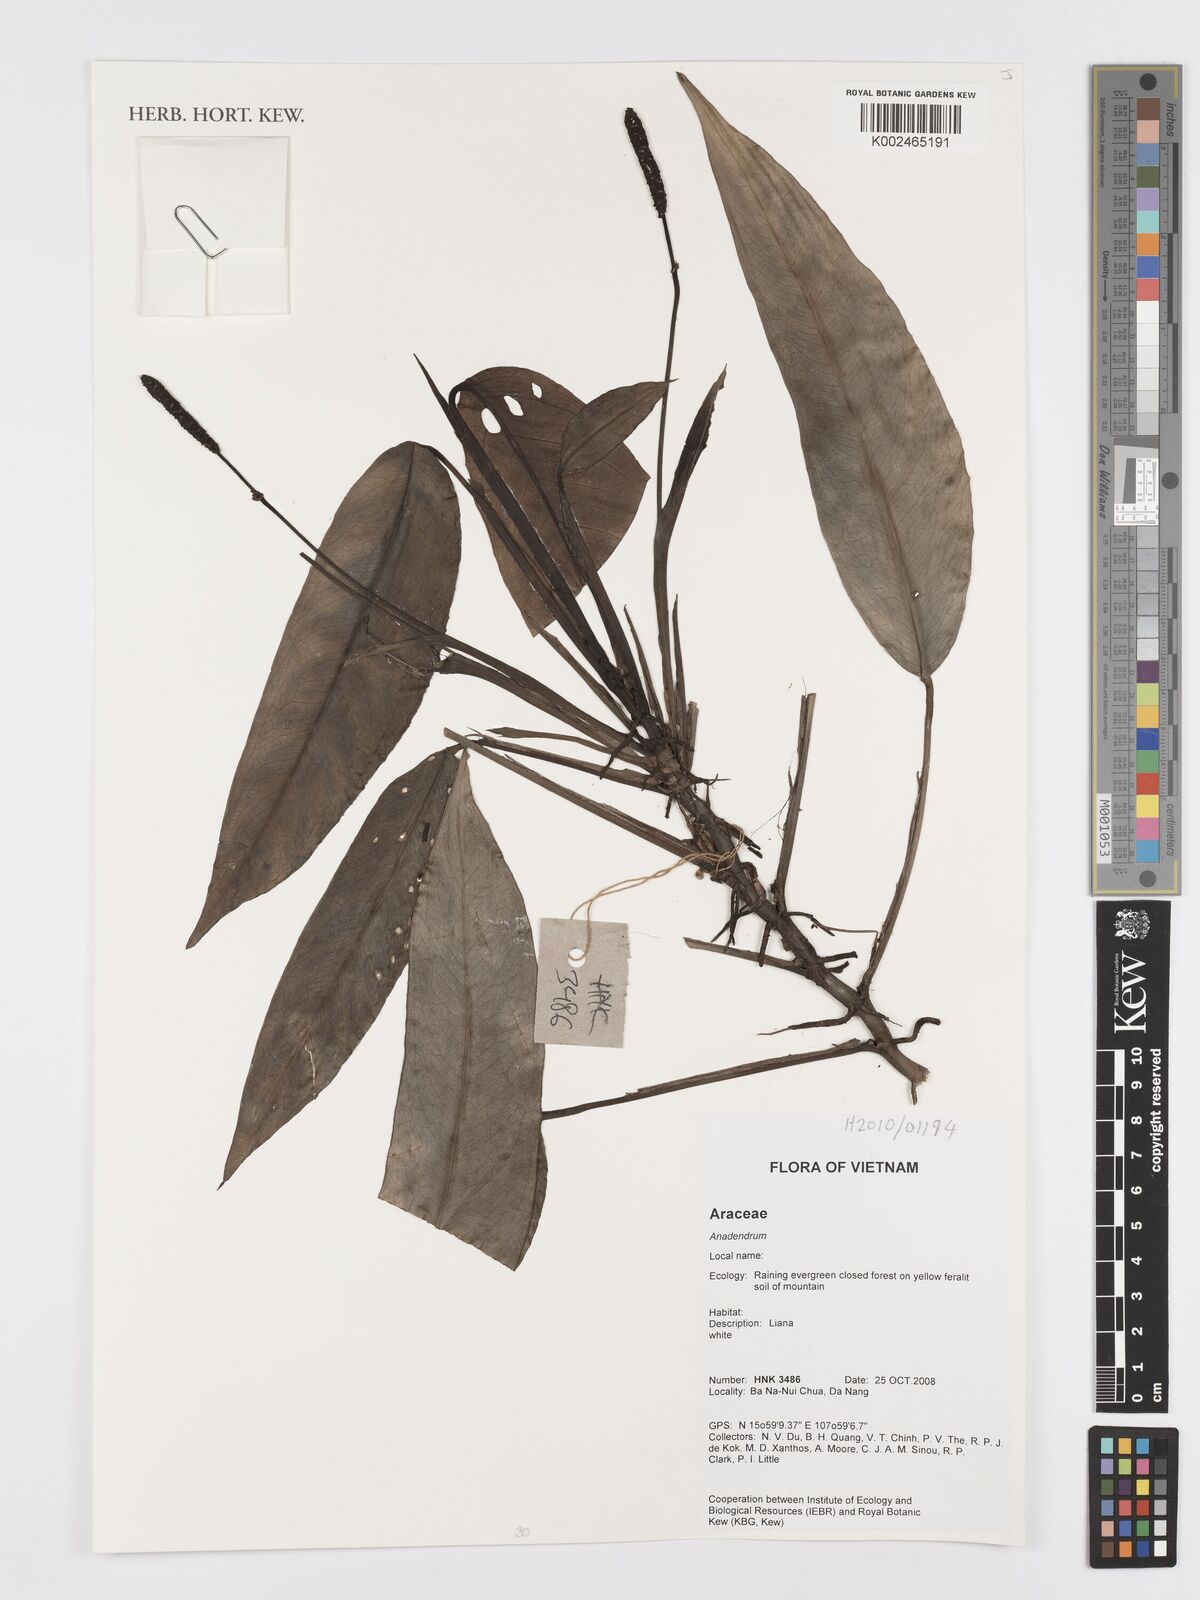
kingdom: Plantae
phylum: Tracheophyta
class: Liliopsida
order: Alismatales
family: Araceae
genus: Anadendrum
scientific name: Anadendrum
